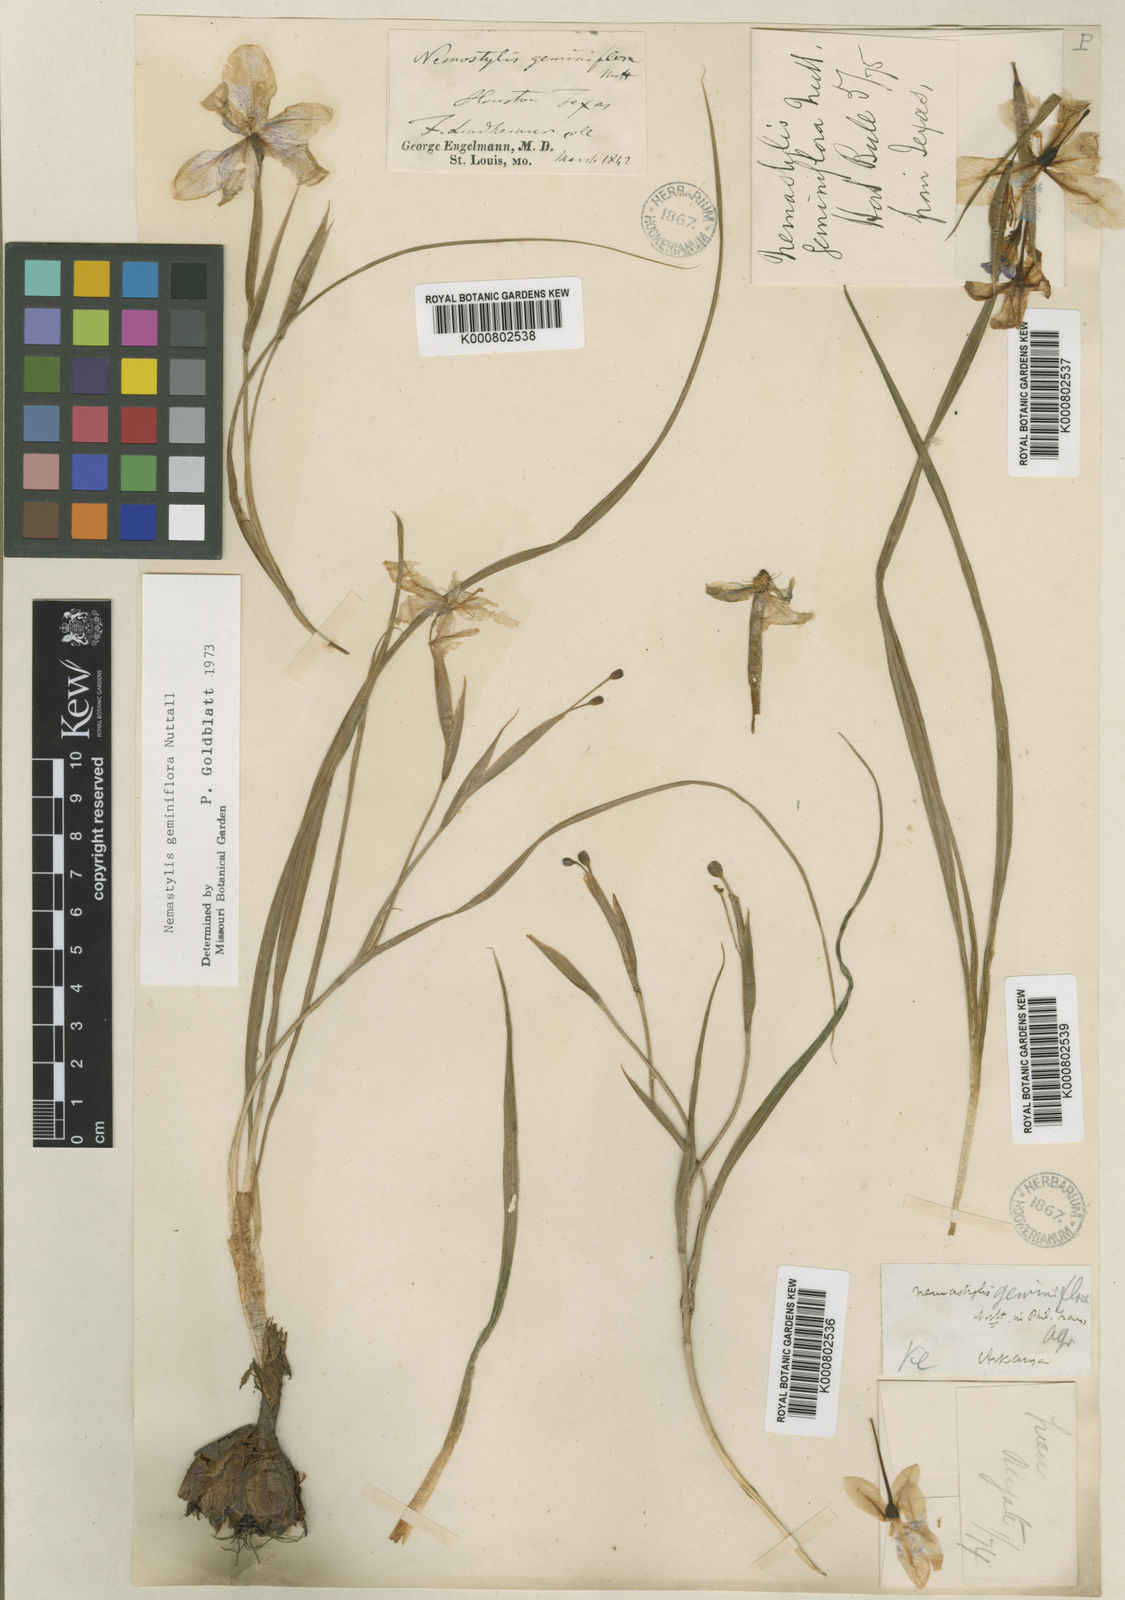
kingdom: Plantae
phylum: Tracheophyta
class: Liliopsida
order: Asparagales
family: Iridaceae
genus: Nemastylis
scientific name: Nemastylis geminiflora
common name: Prairie celestial
